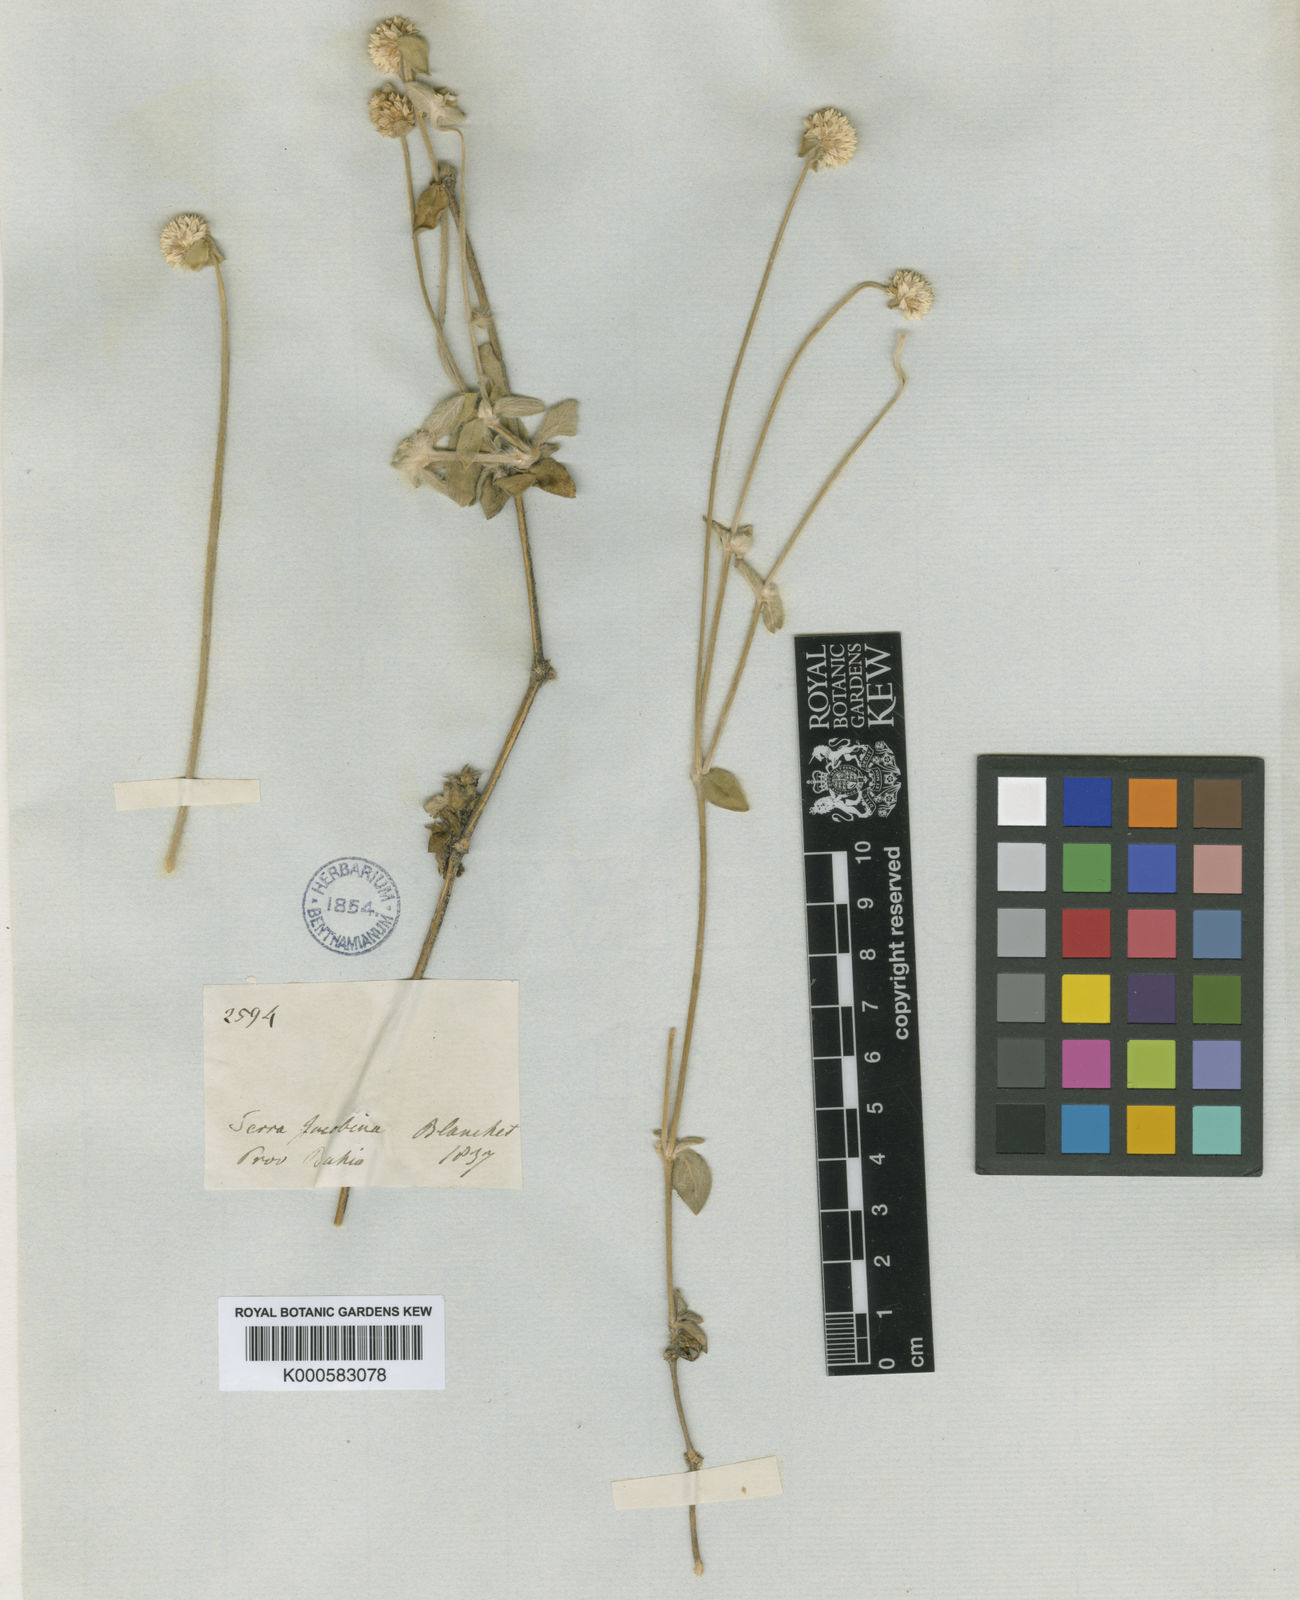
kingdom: Plantae
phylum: Tracheophyta
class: Magnoliopsida
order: Caryophyllales
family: Amaranthaceae
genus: Gomphrena
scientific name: Gomphrena demissa
